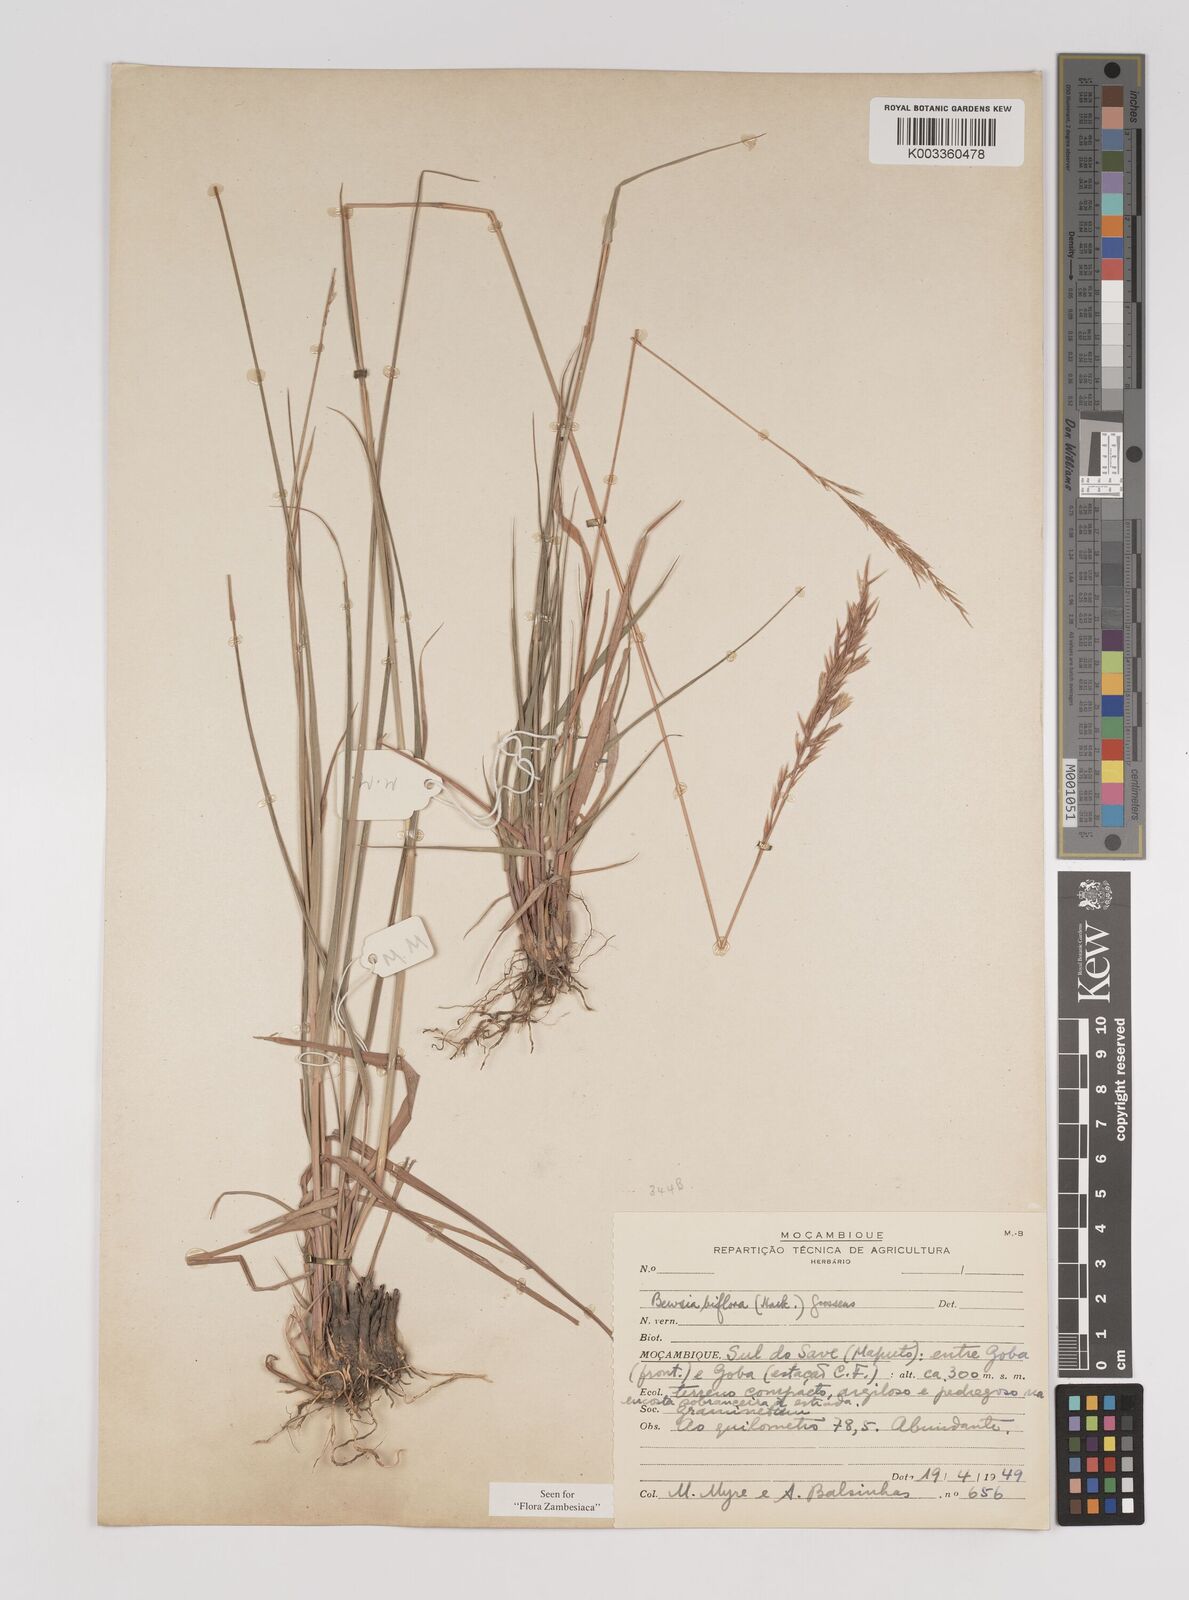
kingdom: Plantae
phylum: Tracheophyta
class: Liliopsida
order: Poales
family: Poaceae
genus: Bewsia
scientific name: Bewsia biflora
